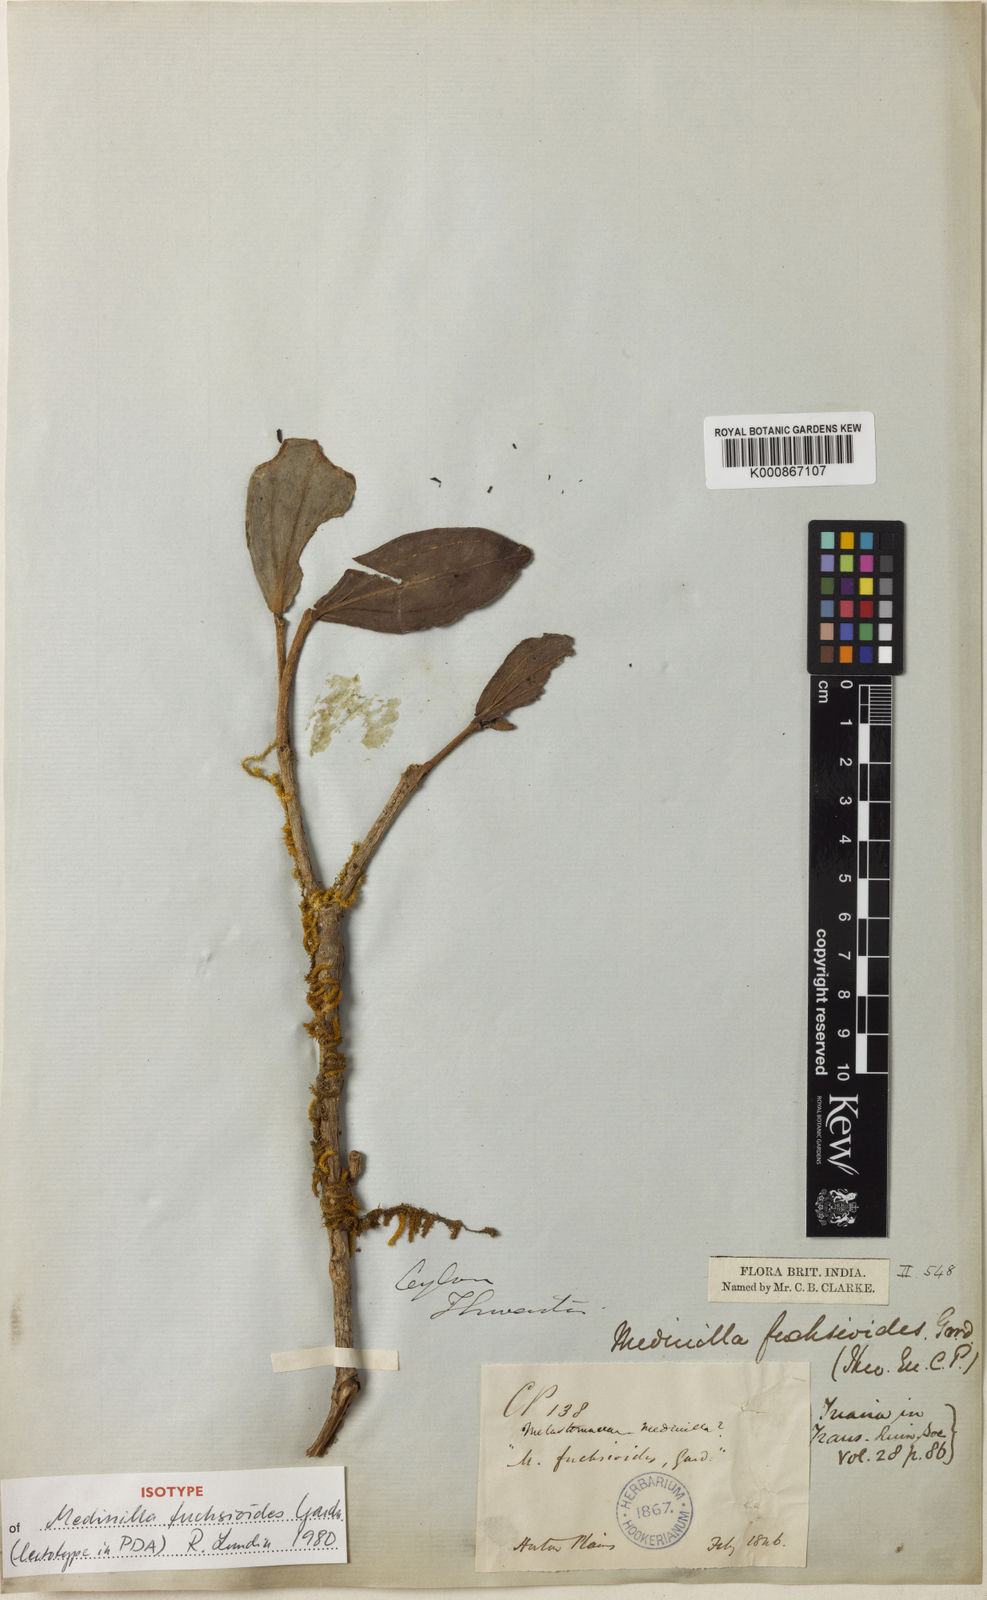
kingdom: Plantae
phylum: Tracheophyta
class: Magnoliopsida
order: Myrtales
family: Melastomataceae
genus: Medinilla
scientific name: Medinilla fuchsioides
